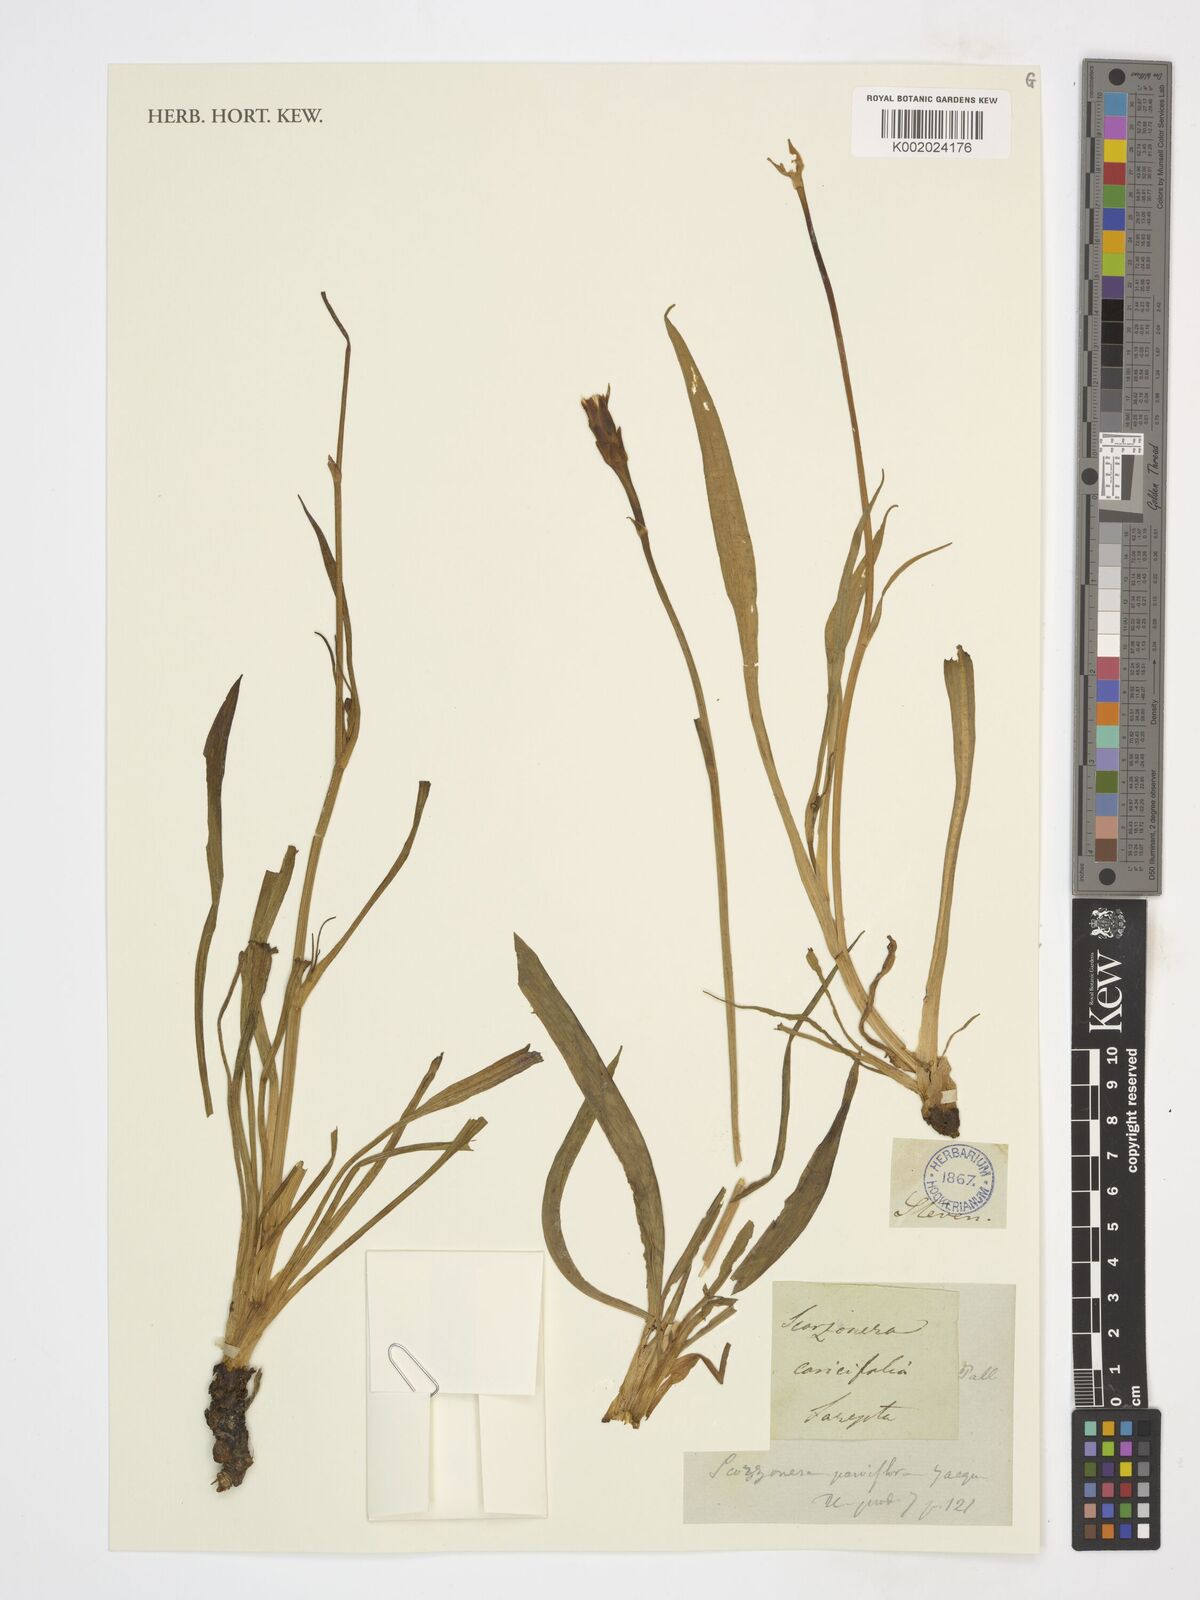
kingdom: Plantae
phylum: Tracheophyta
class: Magnoliopsida
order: Asterales
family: Asteraceae
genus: Scorzonera
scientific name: Scorzonera parviflora
